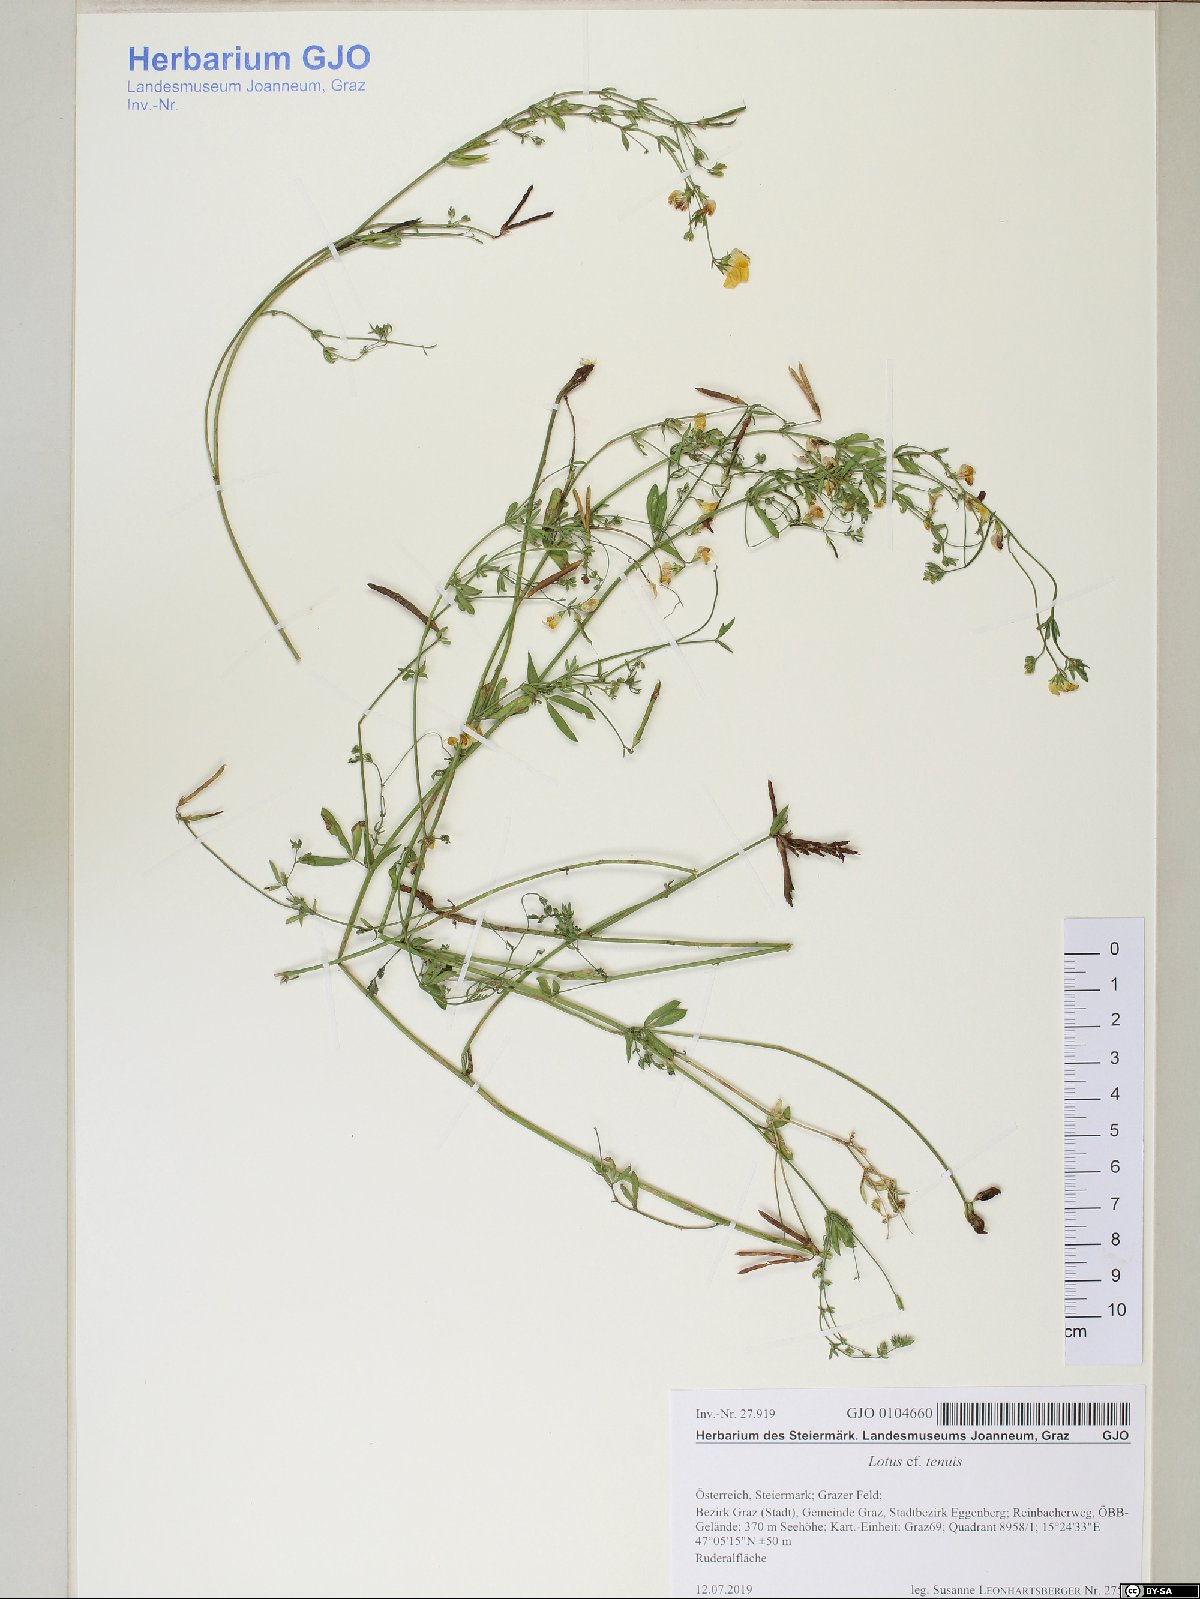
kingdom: Plantae
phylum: Tracheophyta
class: Magnoliopsida
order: Fabales
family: Fabaceae
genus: Lotus
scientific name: Lotus tenuis
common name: Narrow-leaved bird's-foot-trefoil
